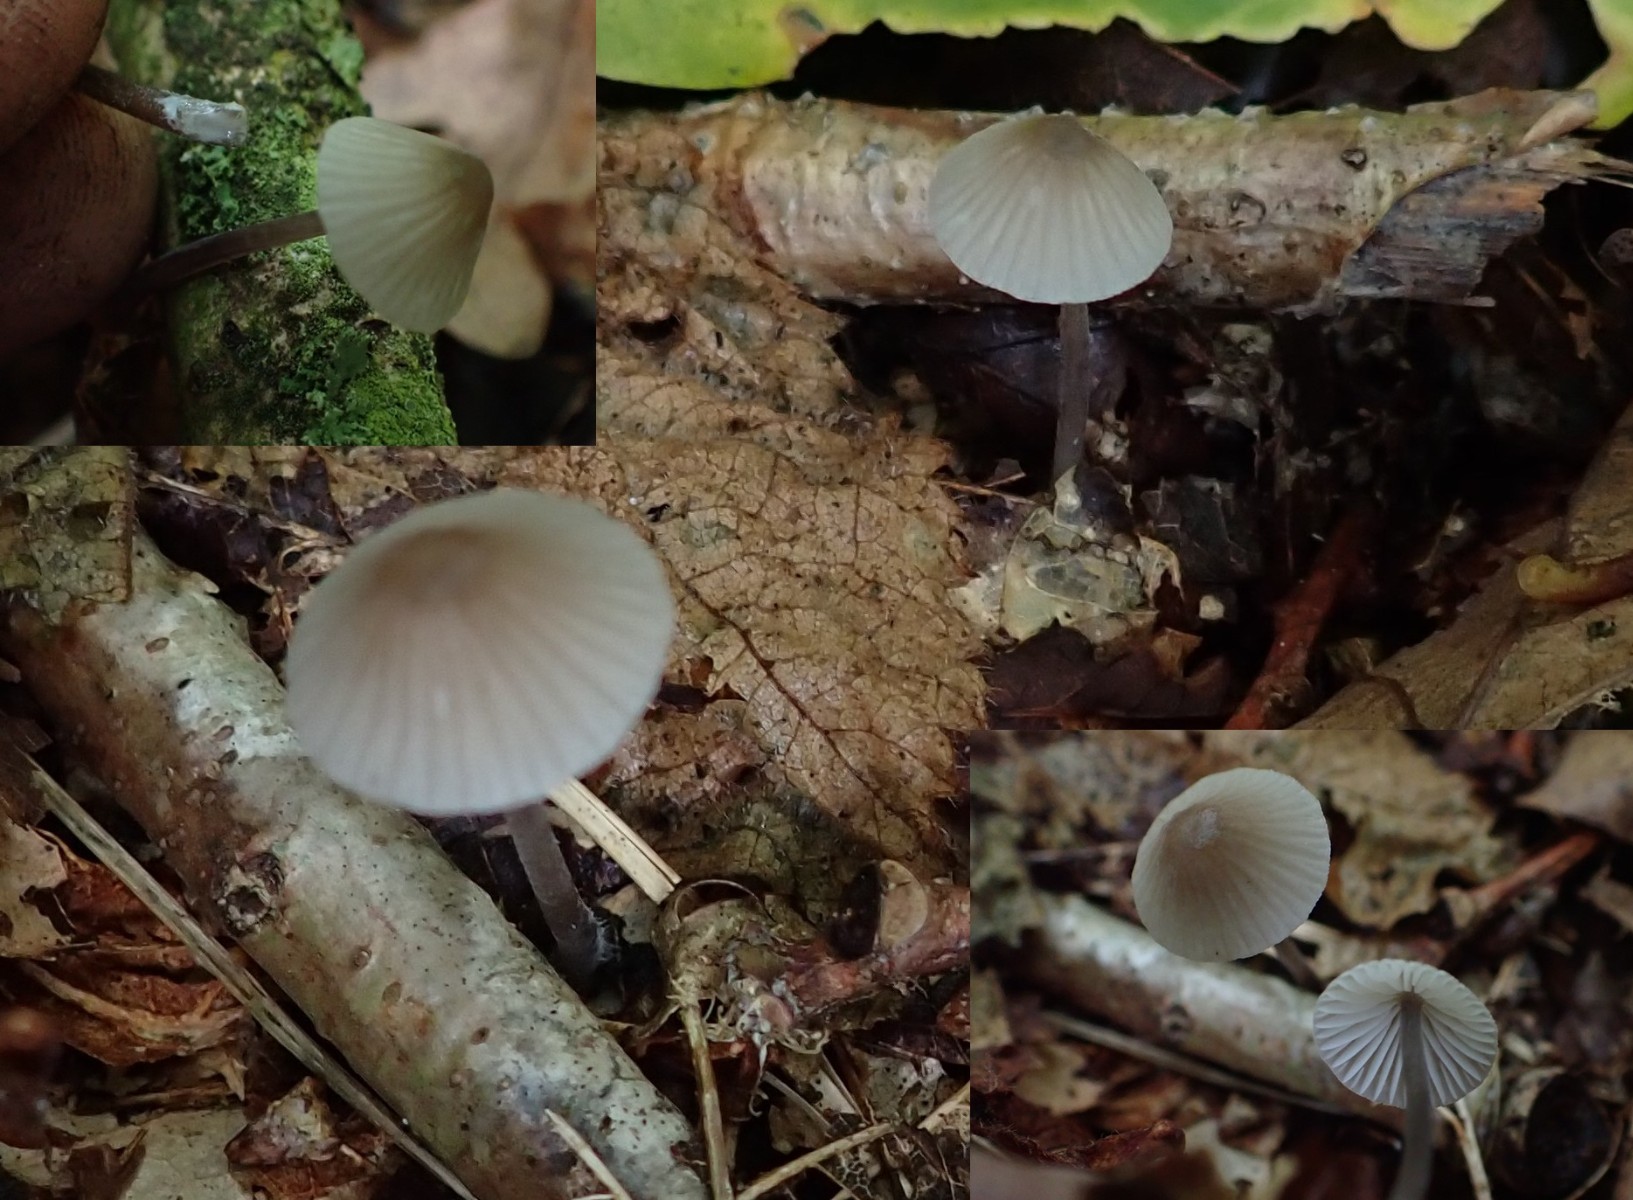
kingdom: Fungi
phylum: Basidiomycota
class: Agaricomycetes
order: Agaricales
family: Mycenaceae
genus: Mycena
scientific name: Mycena galopus
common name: hvidmælket huesvamp
